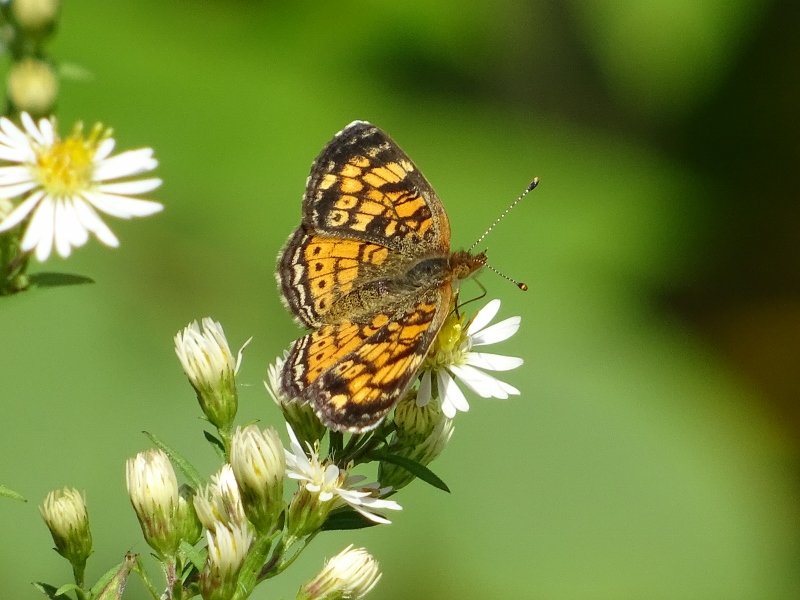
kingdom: Animalia
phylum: Arthropoda
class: Insecta
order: Lepidoptera
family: Nymphalidae
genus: Phyciodes
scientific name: Phyciodes tharos
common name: Northern Crescent
